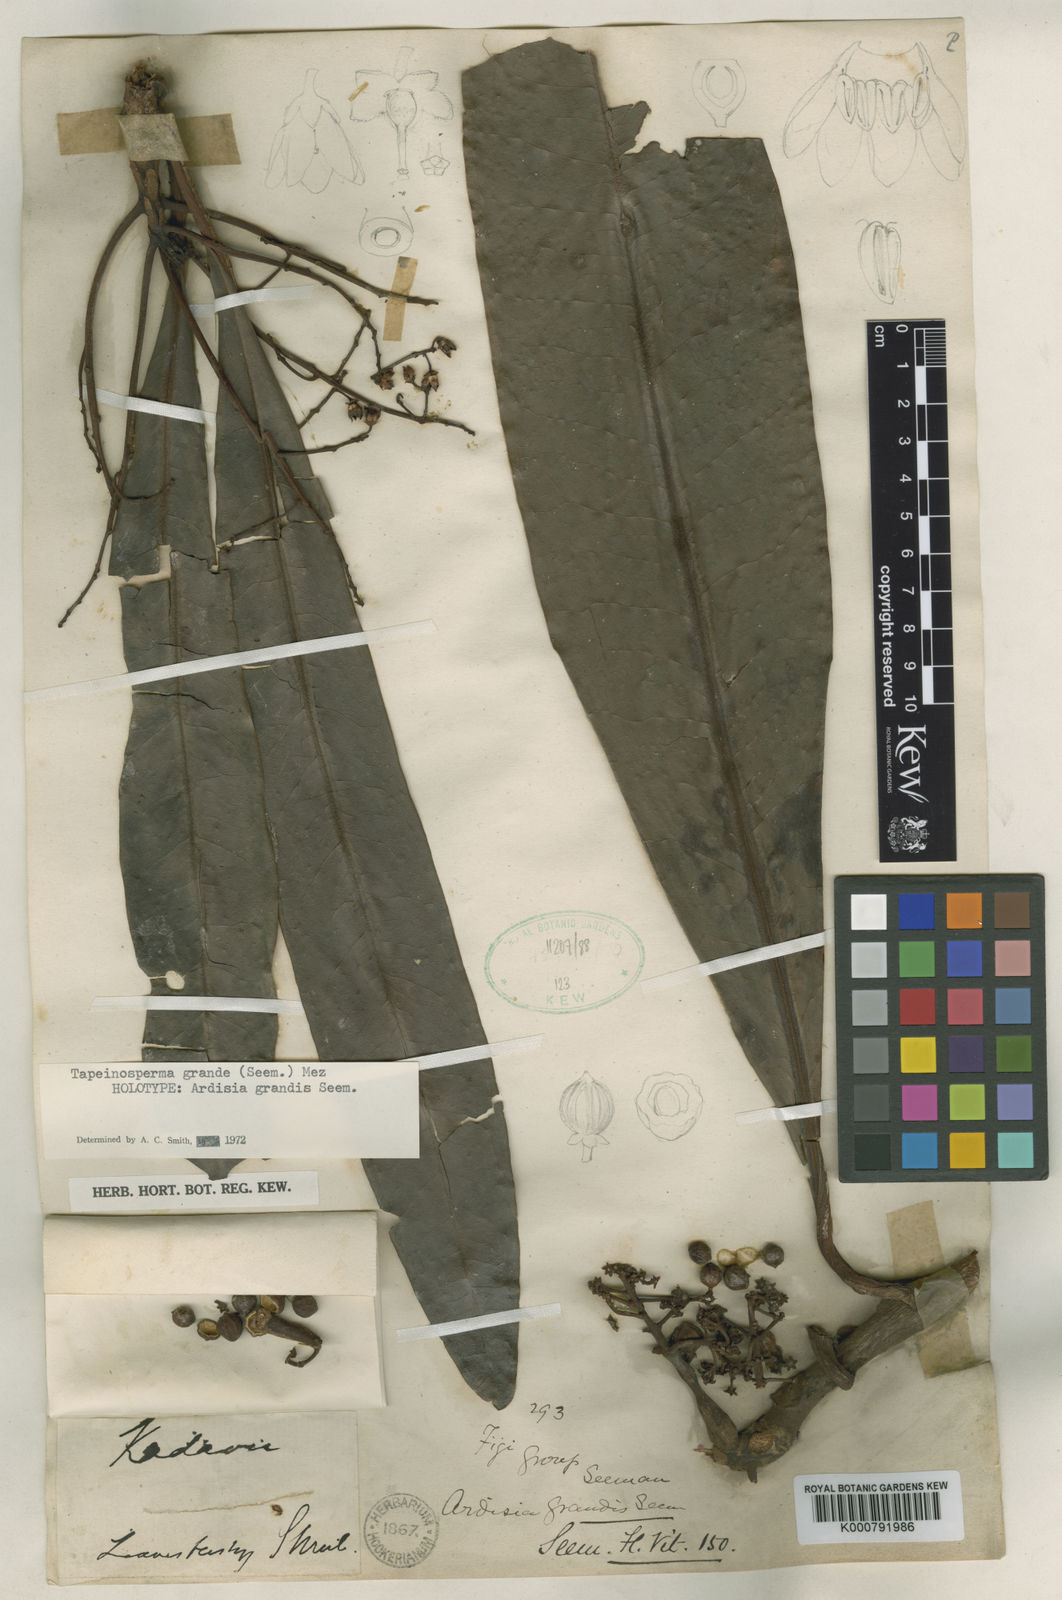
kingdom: Plantae
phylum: Tracheophyta
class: Magnoliopsida
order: Ericales
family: Primulaceae
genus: Tapeinosperma
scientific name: Tapeinosperma grande
